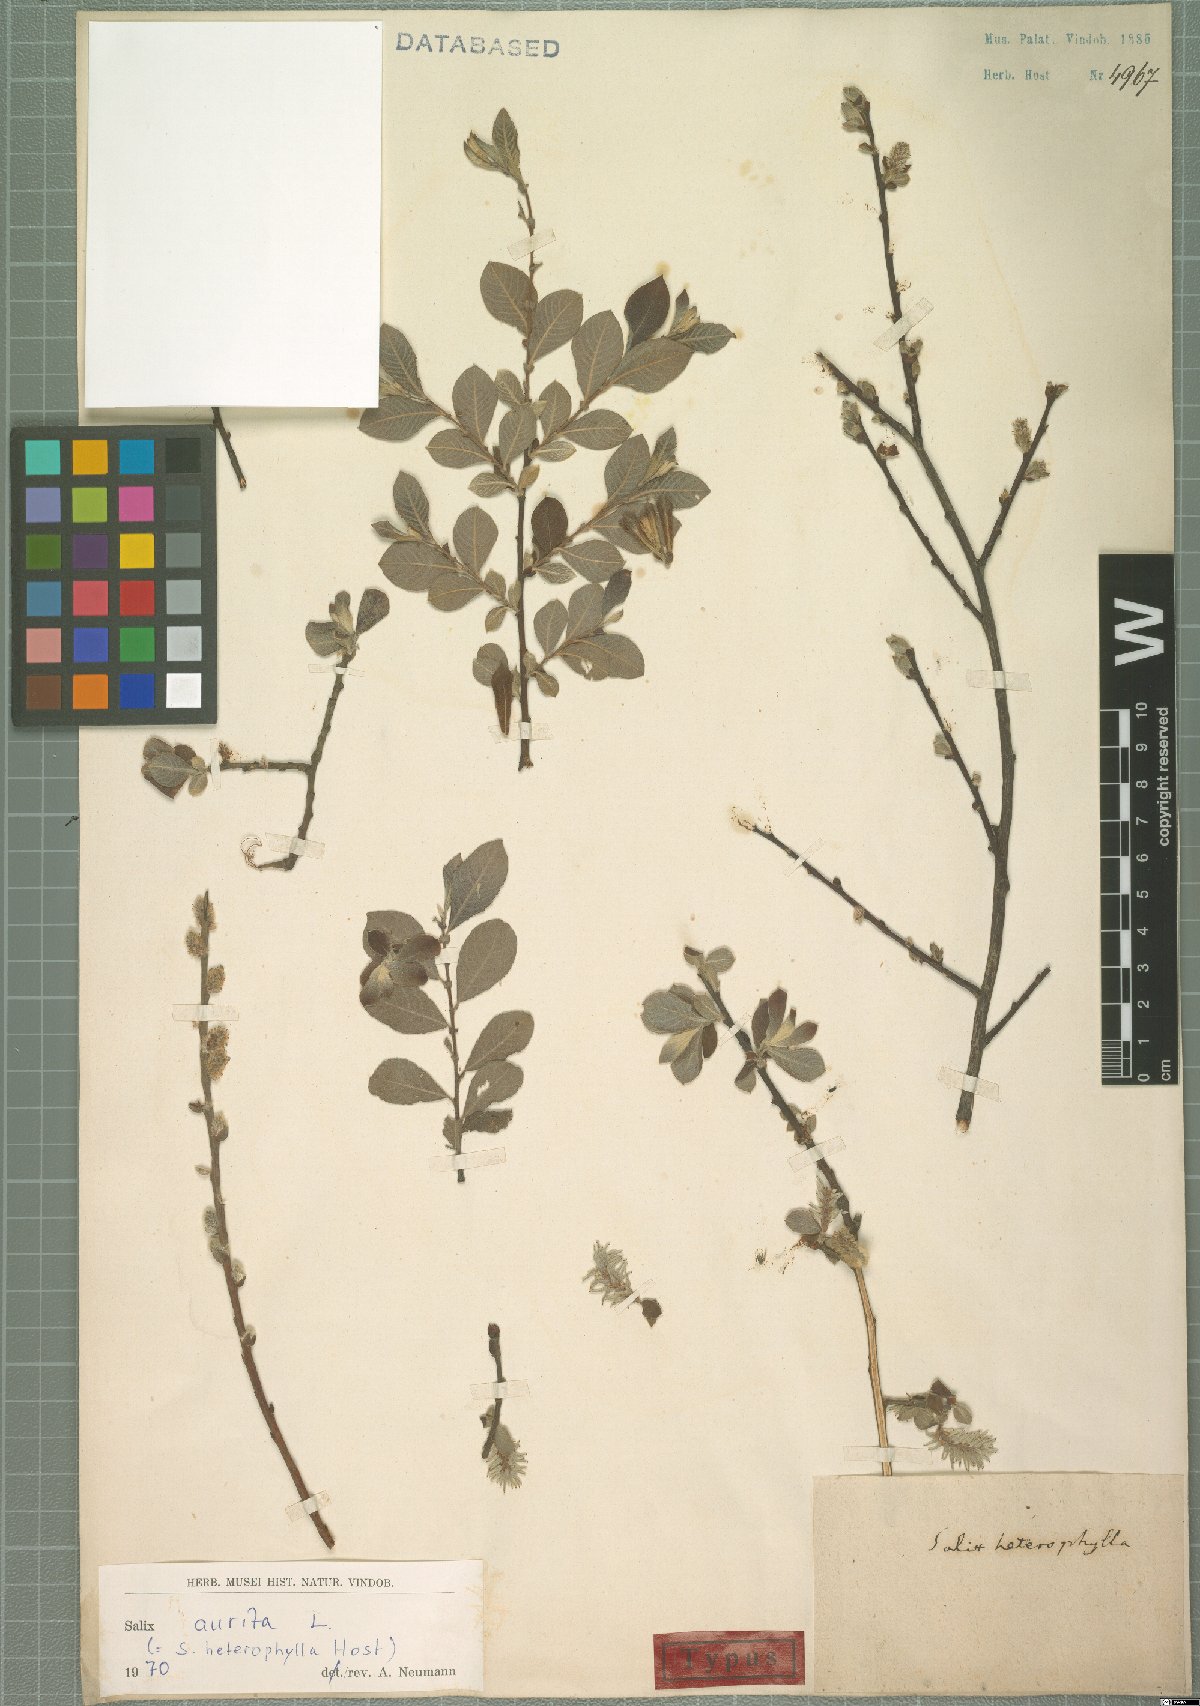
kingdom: Plantae
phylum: Tracheophyta
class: Magnoliopsida
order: Malpighiales
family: Salicaceae
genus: Salix
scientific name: Salix aurita
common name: Eared willow
